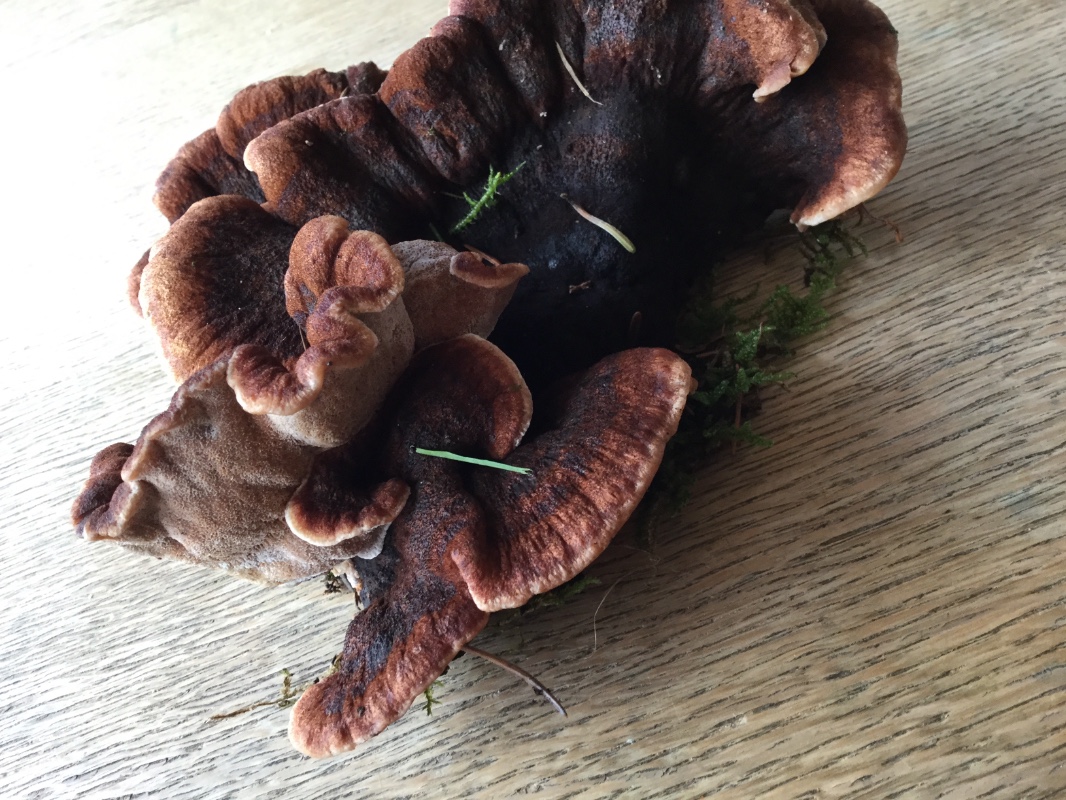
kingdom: Fungi
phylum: Basidiomycota
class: Agaricomycetes
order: Polyporales
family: Ischnodermataceae
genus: Ischnoderma
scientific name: Ischnoderma benzoinum
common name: gran-tjæreporesvamp
